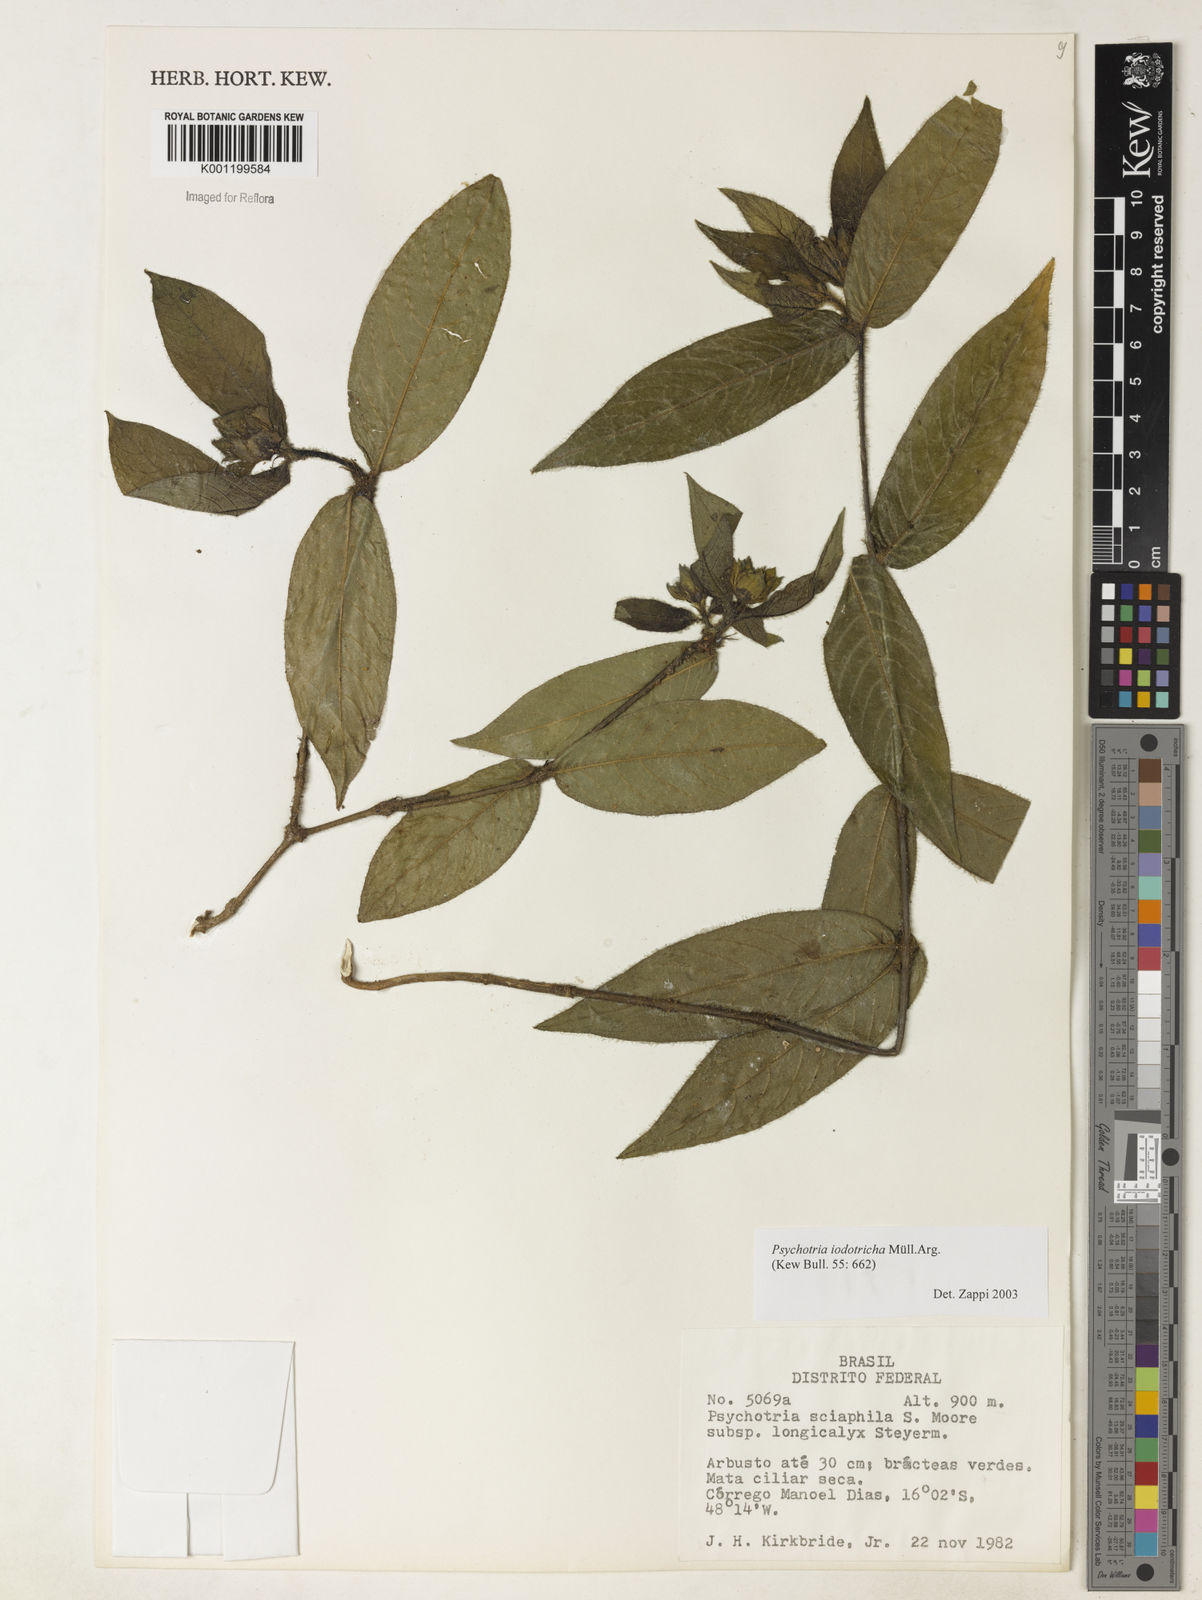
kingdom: Plantae
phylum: Tracheophyta
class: Magnoliopsida
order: Gentianales
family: Rubiaceae
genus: Psychotria
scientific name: Psychotria
